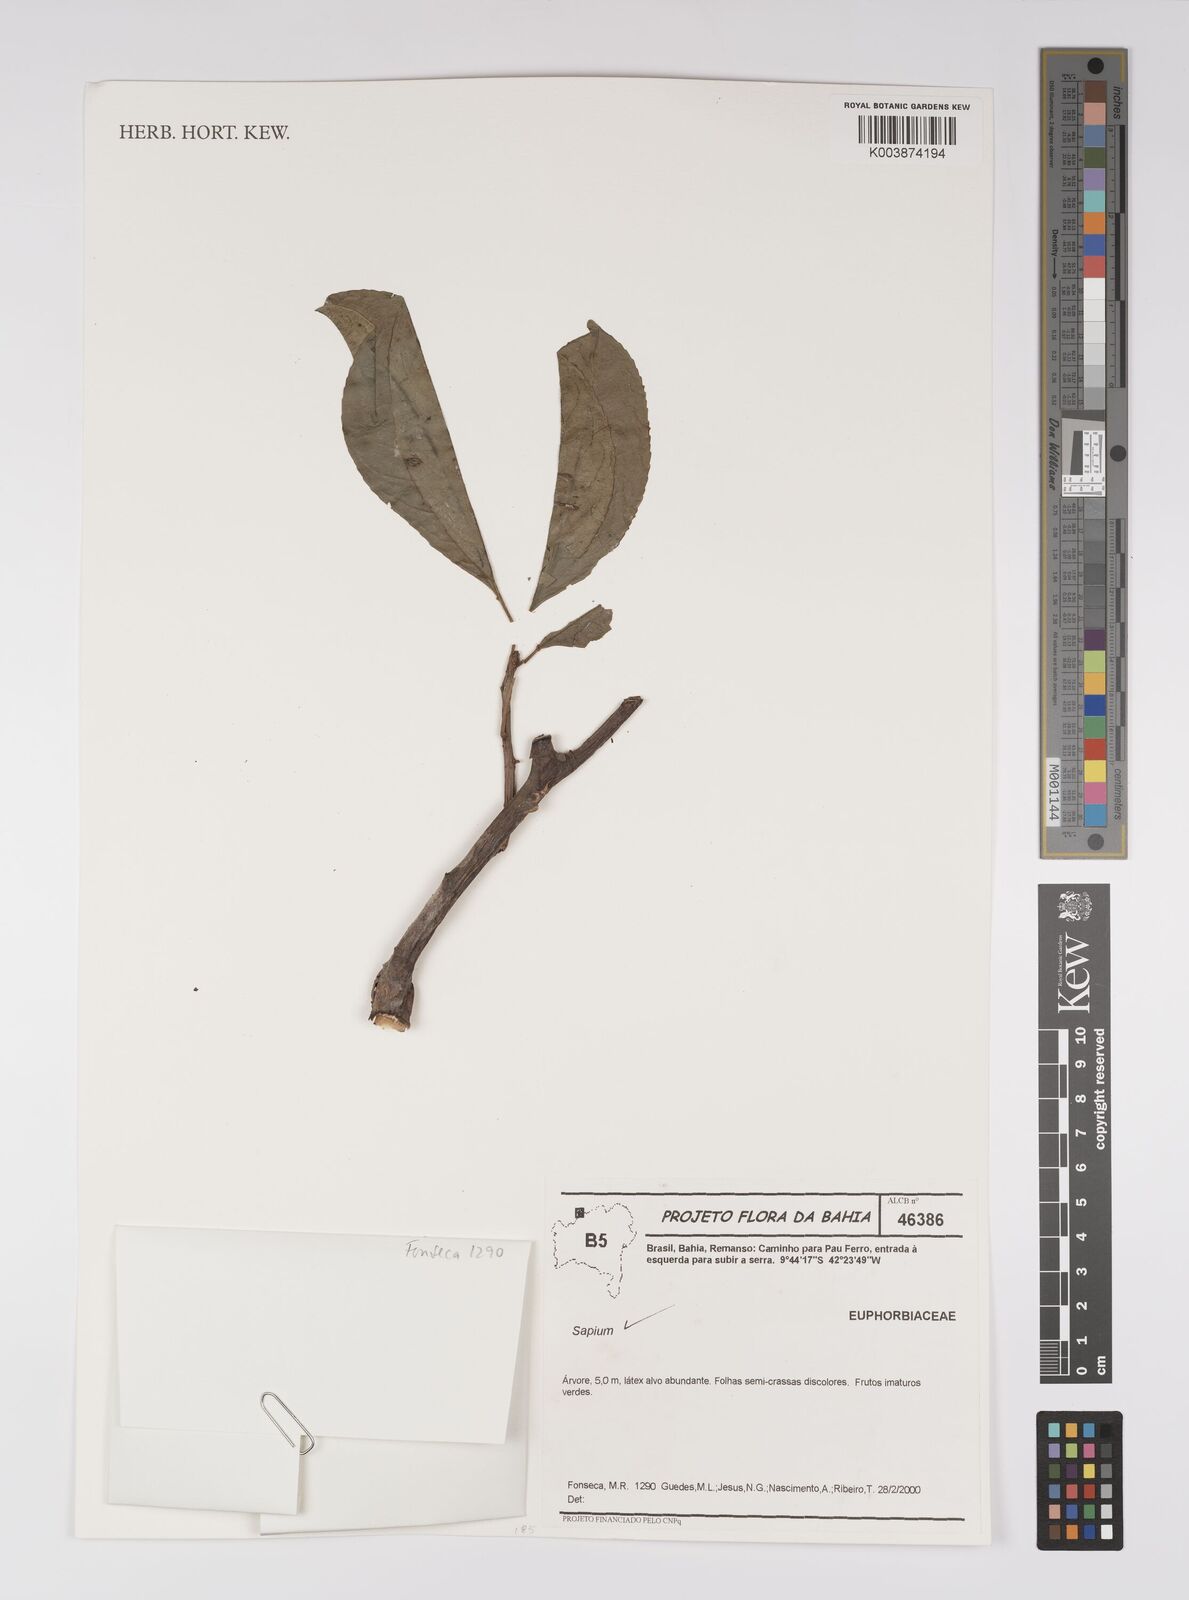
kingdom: Plantae
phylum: Tracheophyta
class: Magnoliopsida
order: Malpighiales
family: Euphorbiaceae
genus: Sapium
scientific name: Sapium
